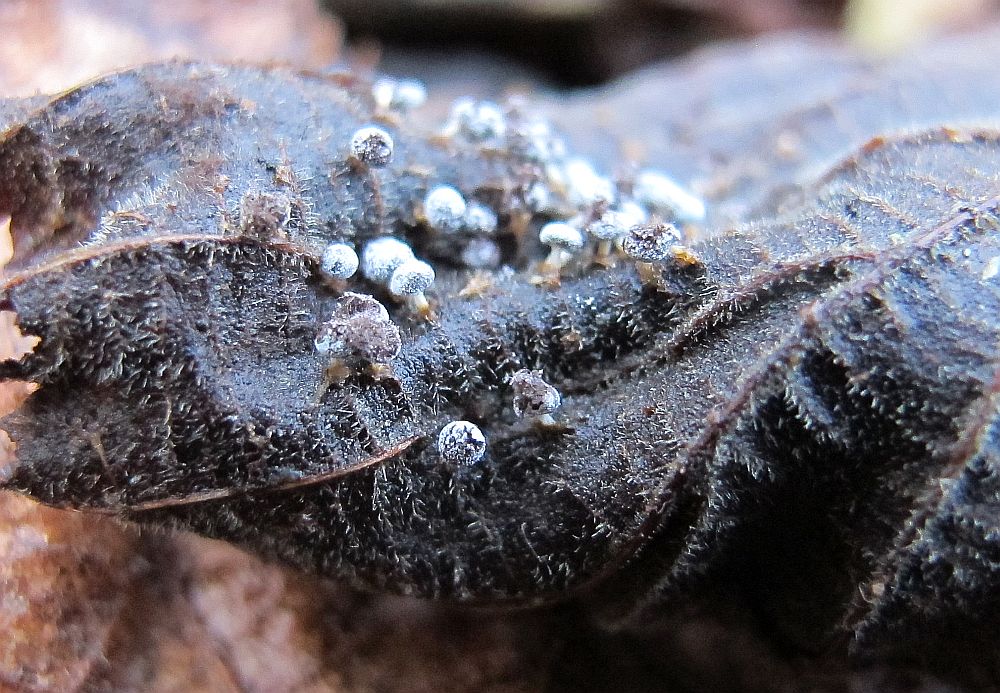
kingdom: Protozoa
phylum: Mycetozoa
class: Myxomycetes
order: Physarales
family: Didymiaceae
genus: Didymium
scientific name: Didymium squamulosum
